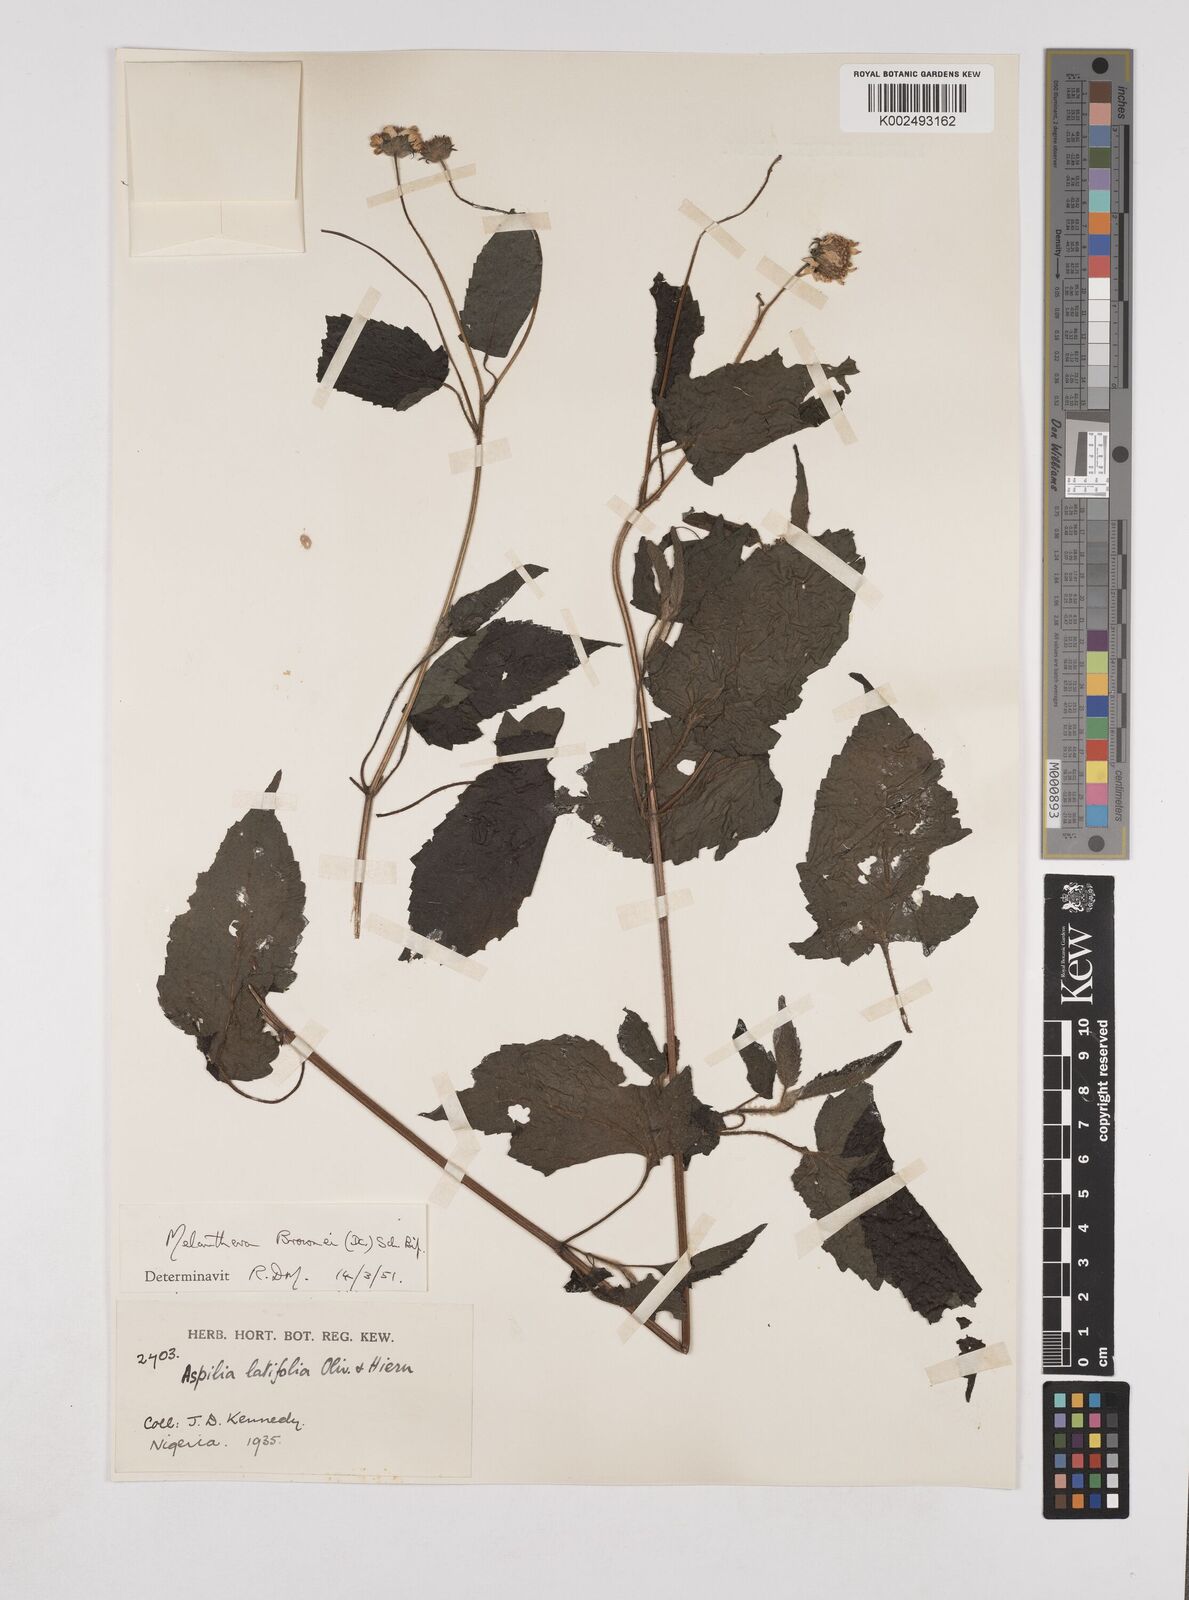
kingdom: Plantae
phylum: Tracheophyta
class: Magnoliopsida
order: Asterales
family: Asteraceae
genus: Lipotriche
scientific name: Lipotriche scandens
